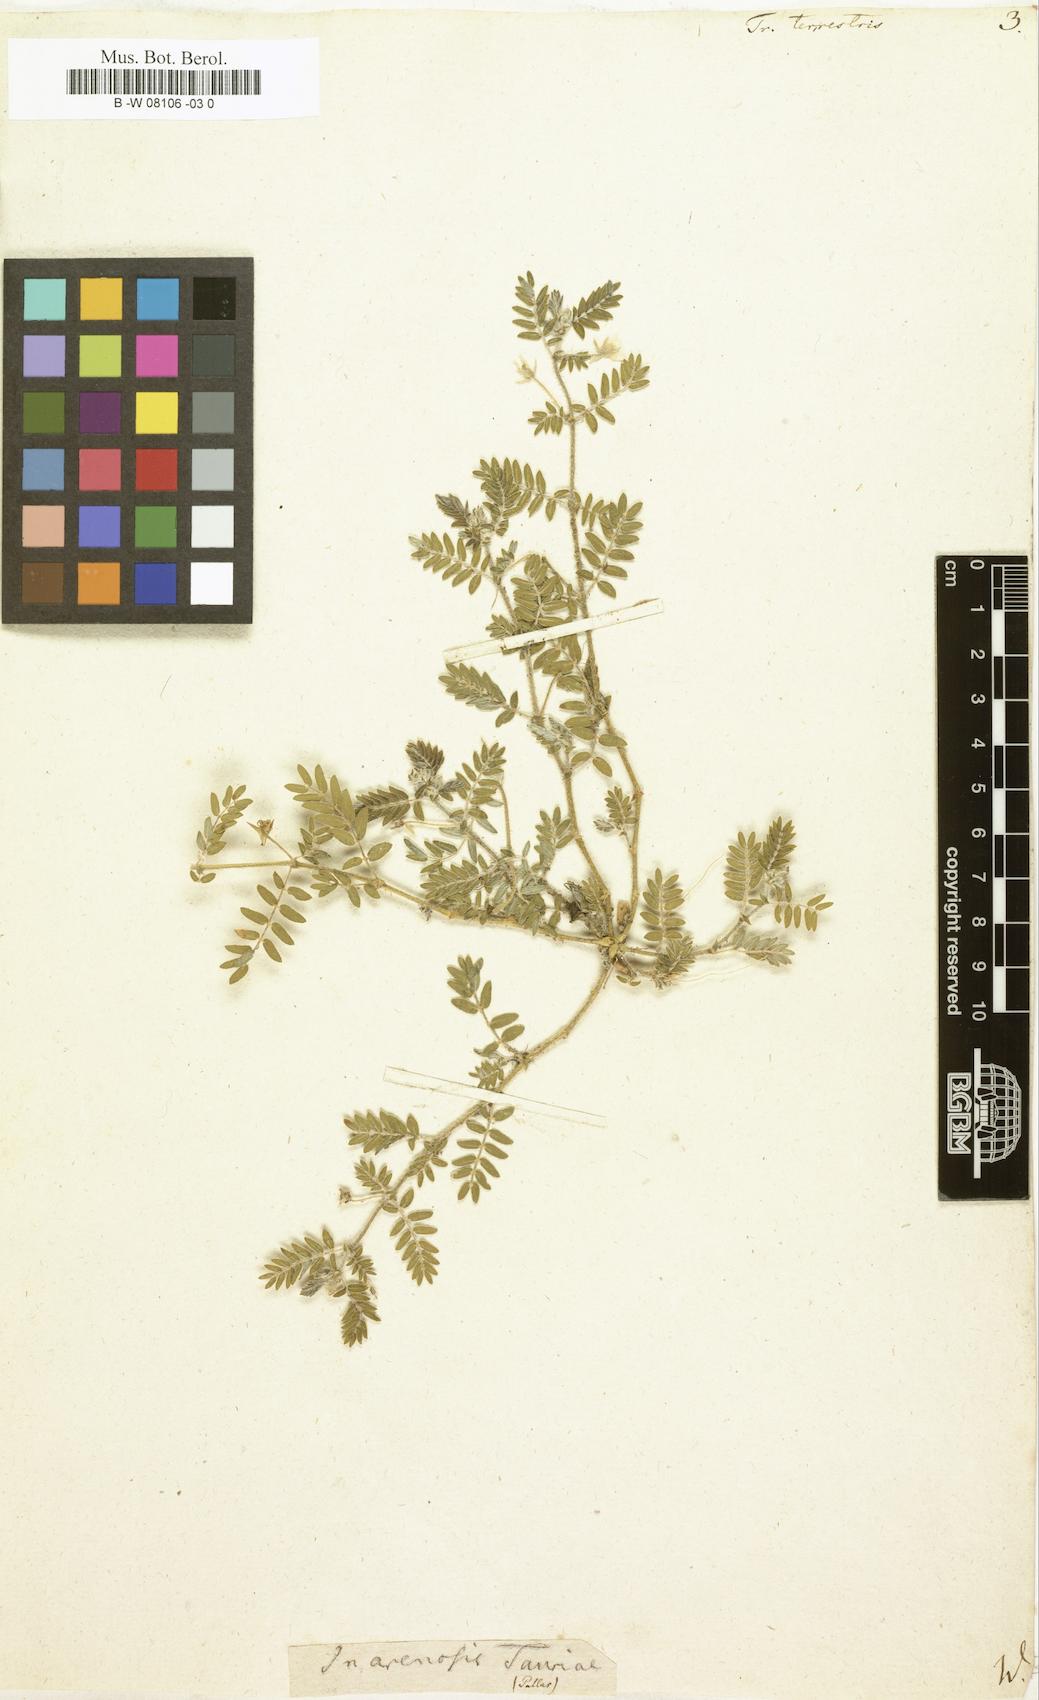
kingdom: Plantae
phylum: Tracheophyta
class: Magnoliopsida
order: Zygophyllales
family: Zygophyllaceae
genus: Tribulus
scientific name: Tribulus terrestris
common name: Puncturevine
